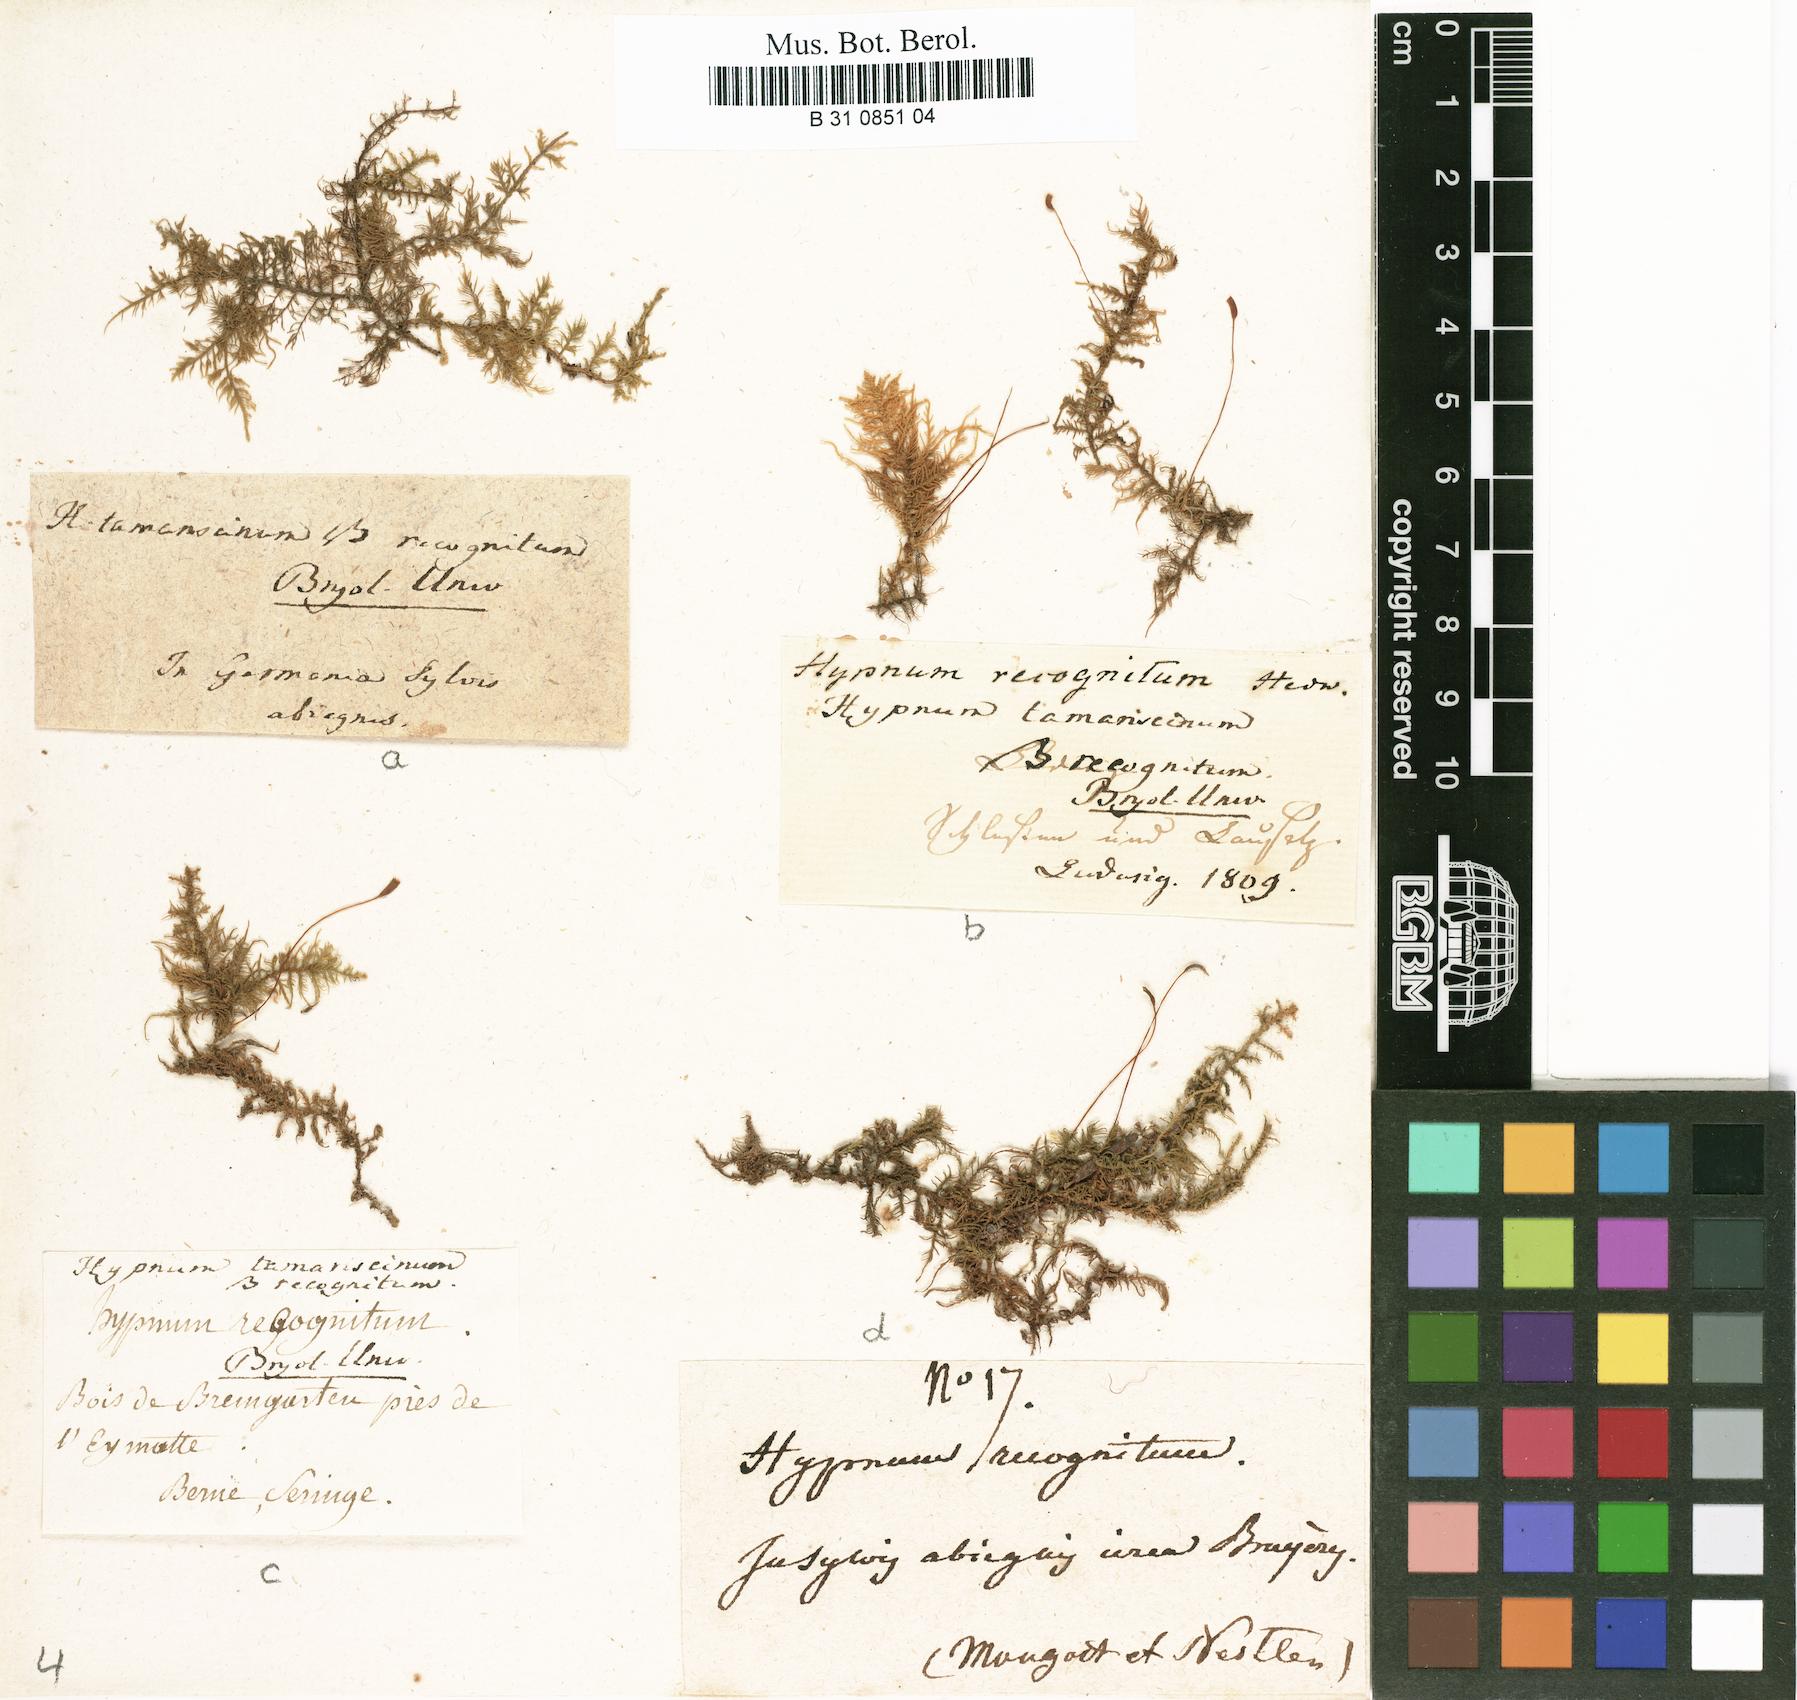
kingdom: Plantae
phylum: Bryophyta
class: Bryopsida
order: Hypnales
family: Thuidiaceae
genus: Thuidium
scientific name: Thuidium tamariscinum
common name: Common tamarisk-moss
